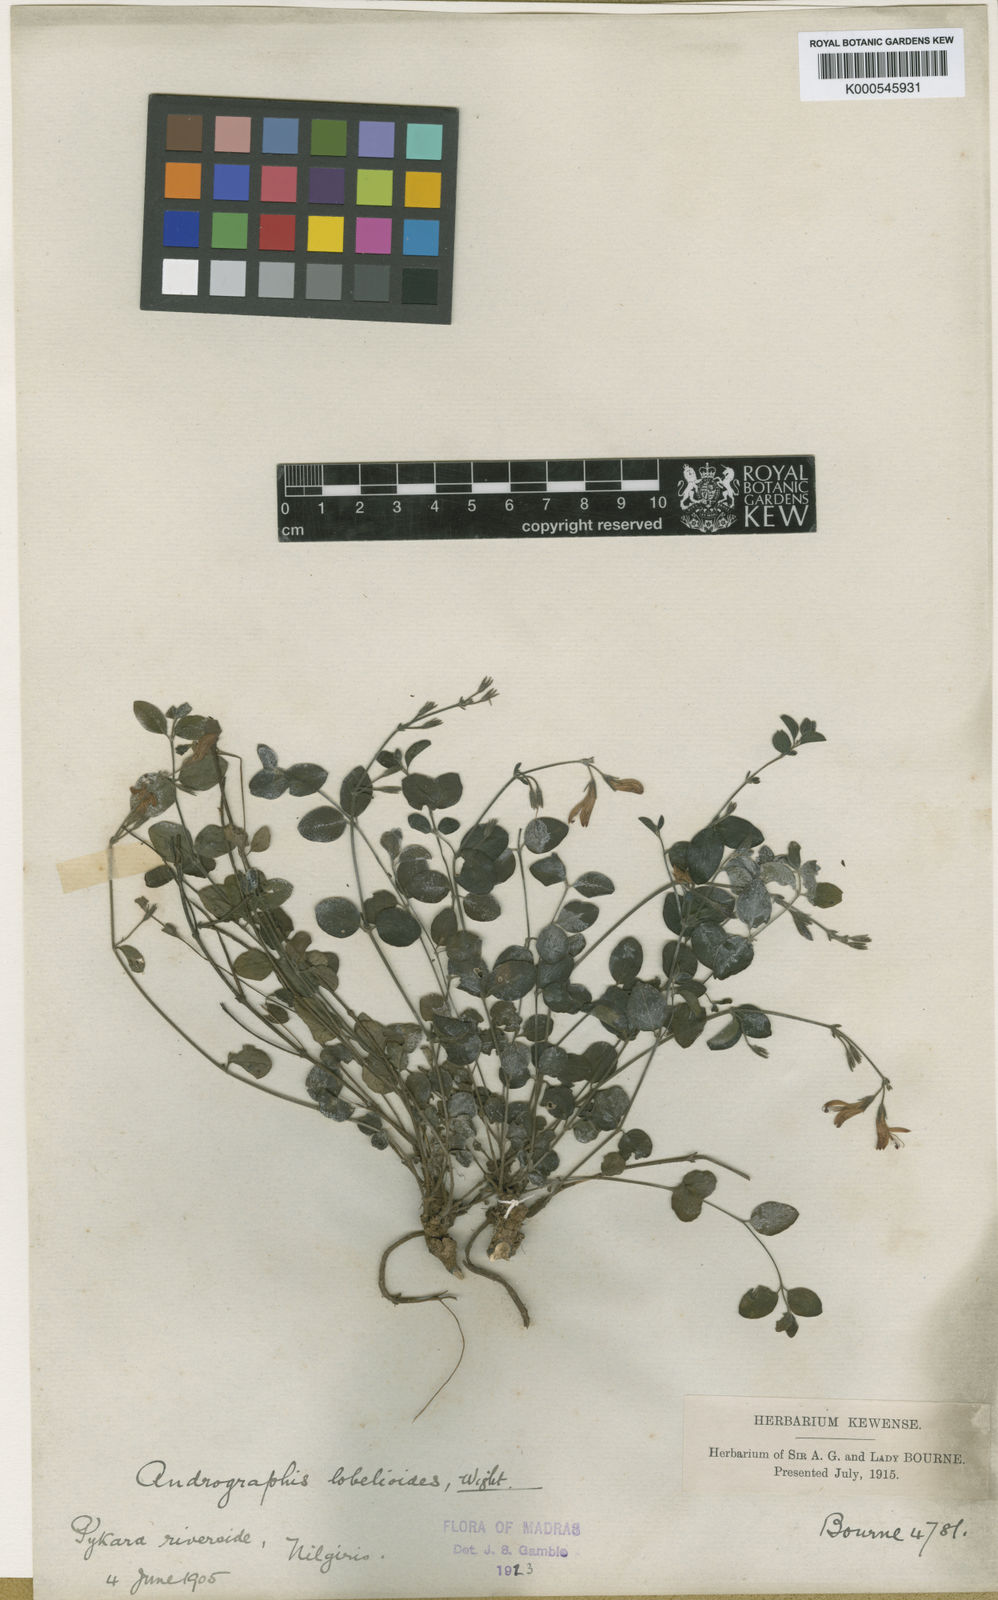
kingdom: Plantae
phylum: Tracheophyta
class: Magnoliopsida
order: Lamiales
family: Acanthaceae
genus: Andrographis
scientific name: Andrographis lobelioides
